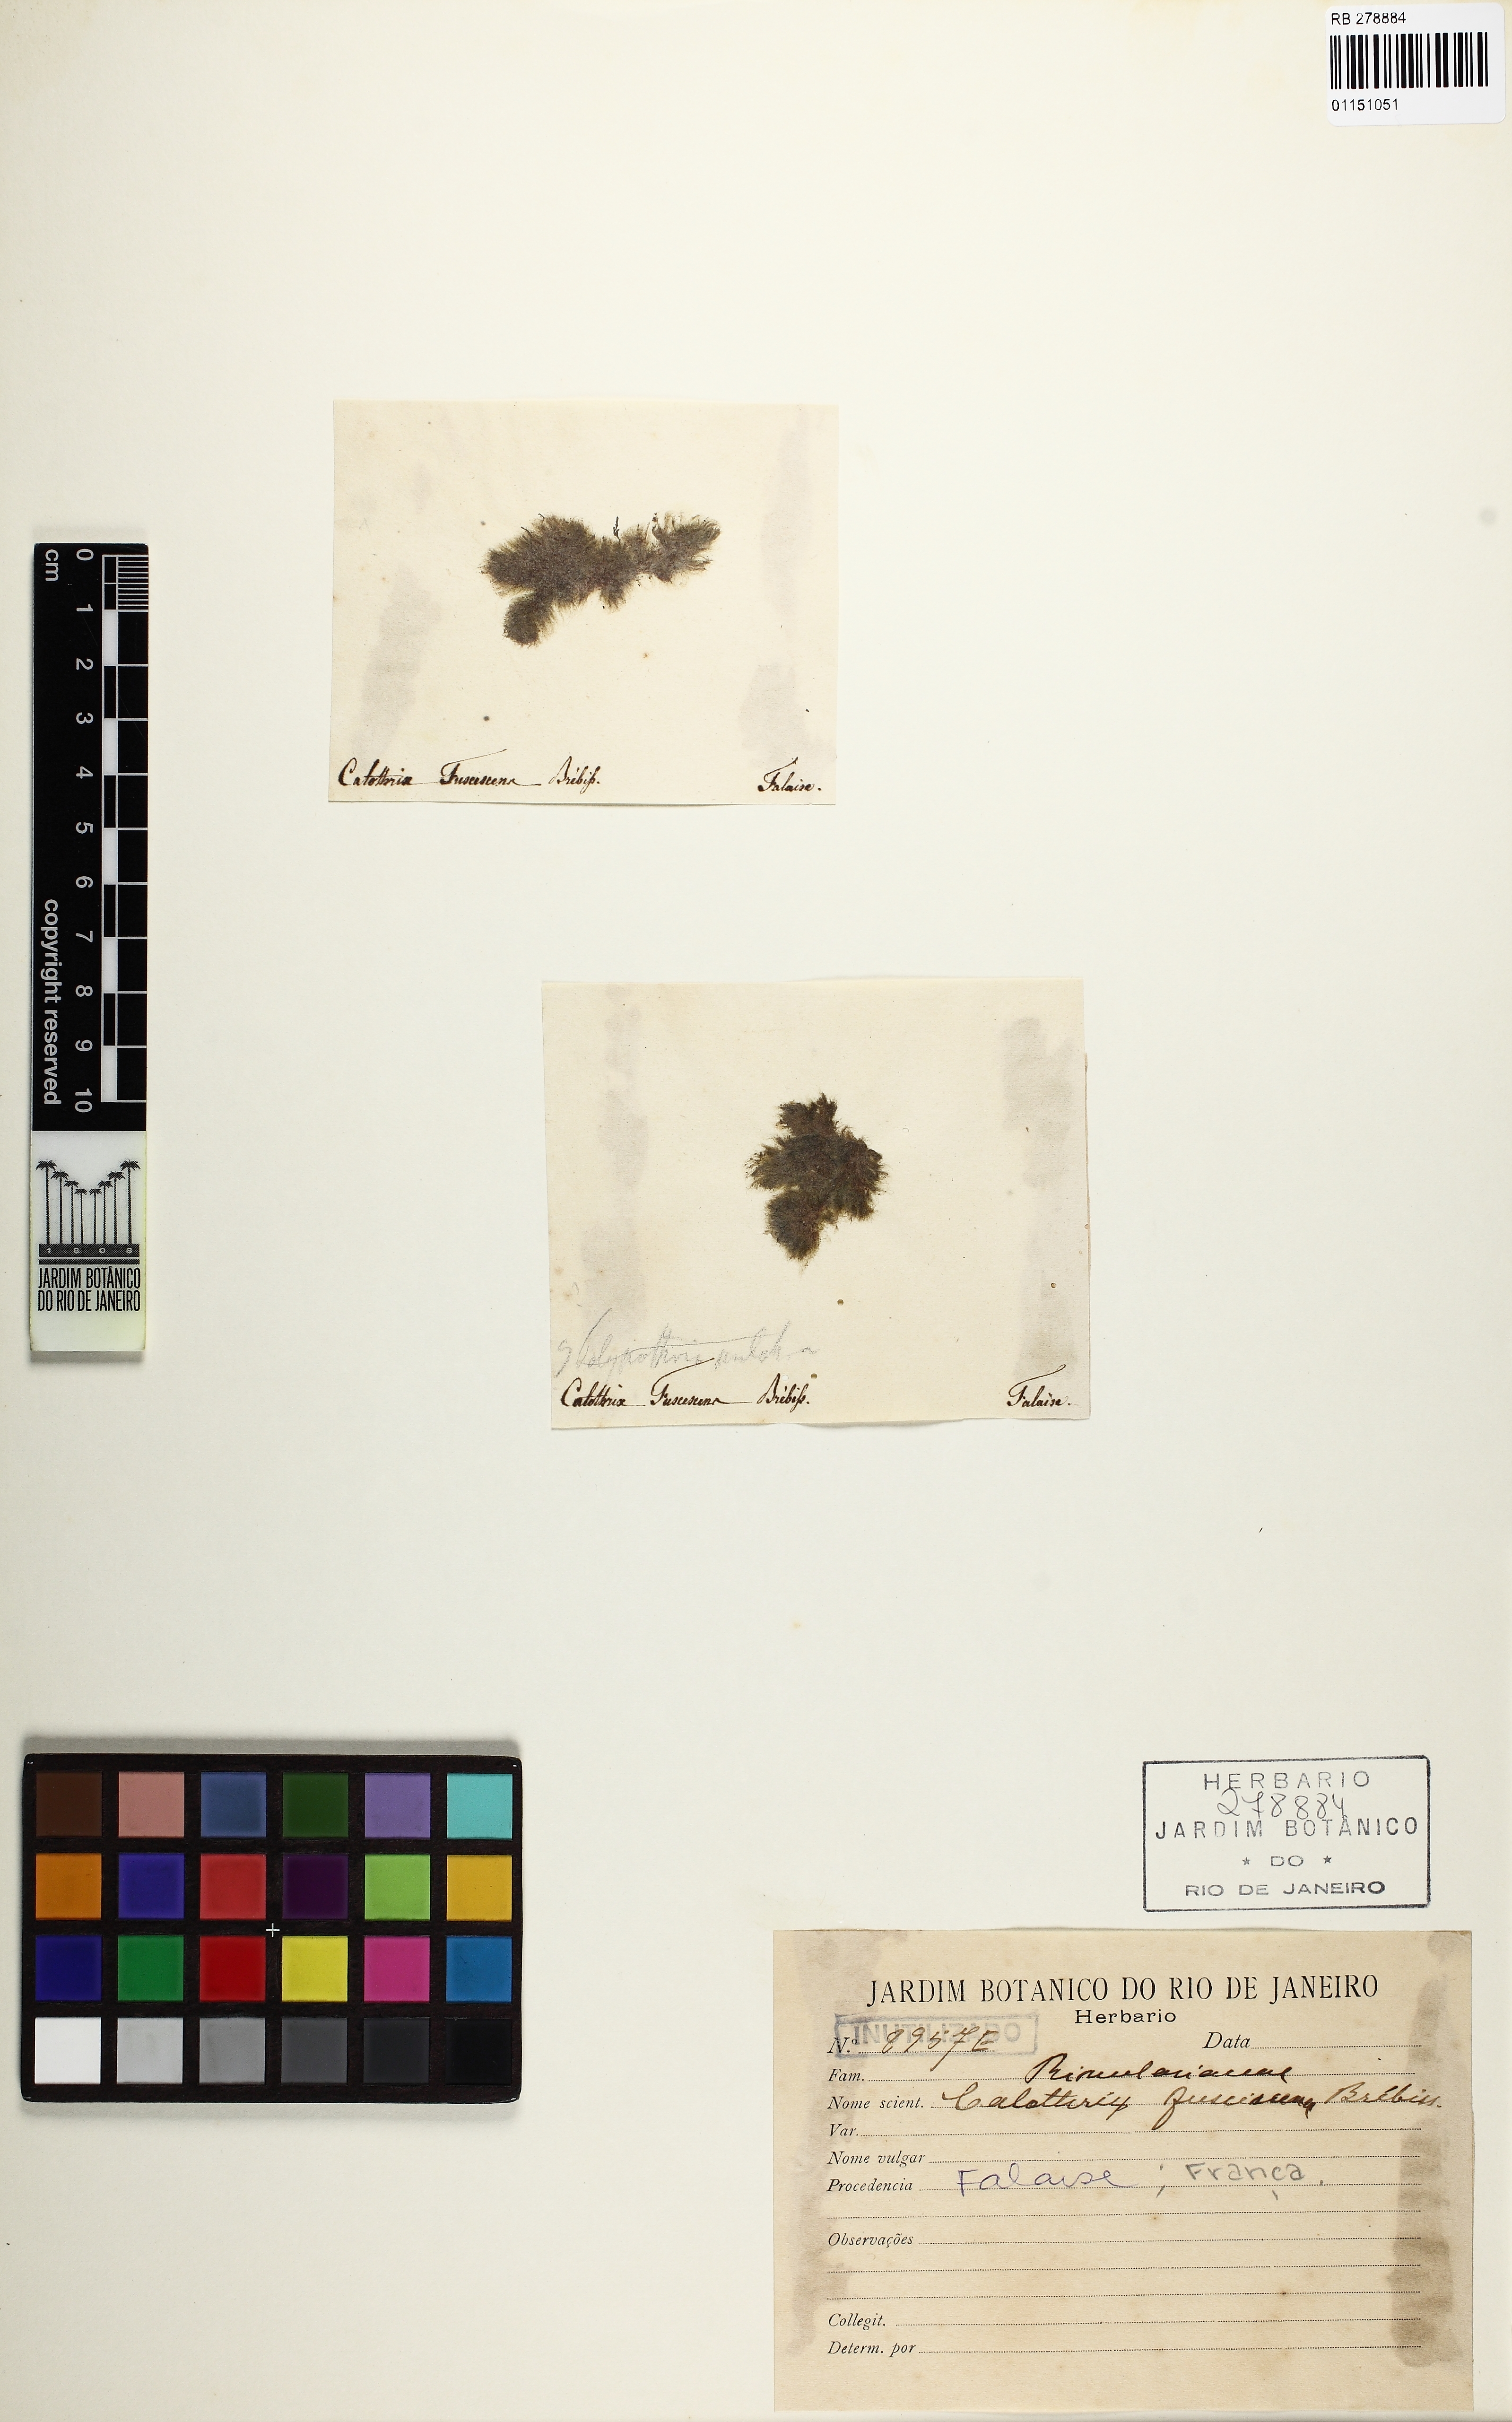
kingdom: Bacteria
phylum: Cyanobacteria
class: Cyanobacteriia
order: Cyanobacteriales
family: Rivulariaceae
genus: Calothrix
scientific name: Calothrix
